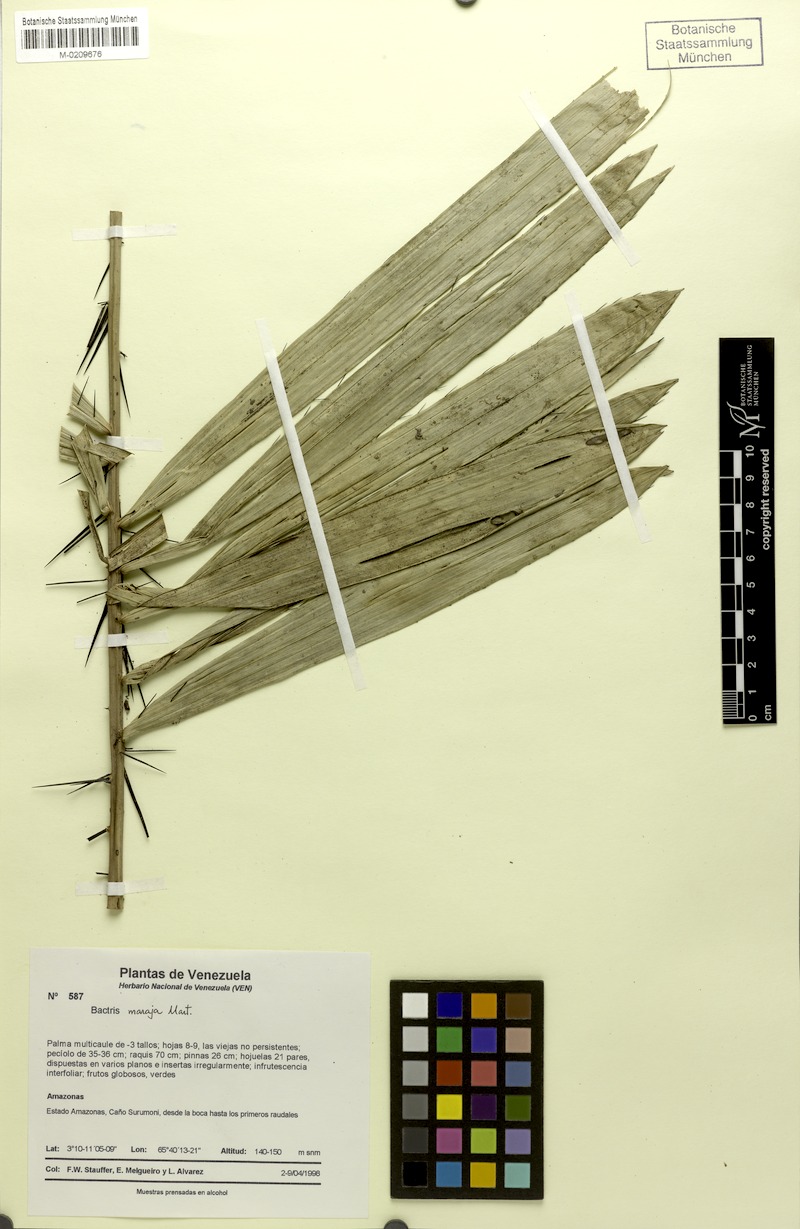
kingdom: Plantae
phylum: Tracheophyta
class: Liliopsida
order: Arecales
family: Arecaceae
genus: Bactris
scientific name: Bactris maraja
